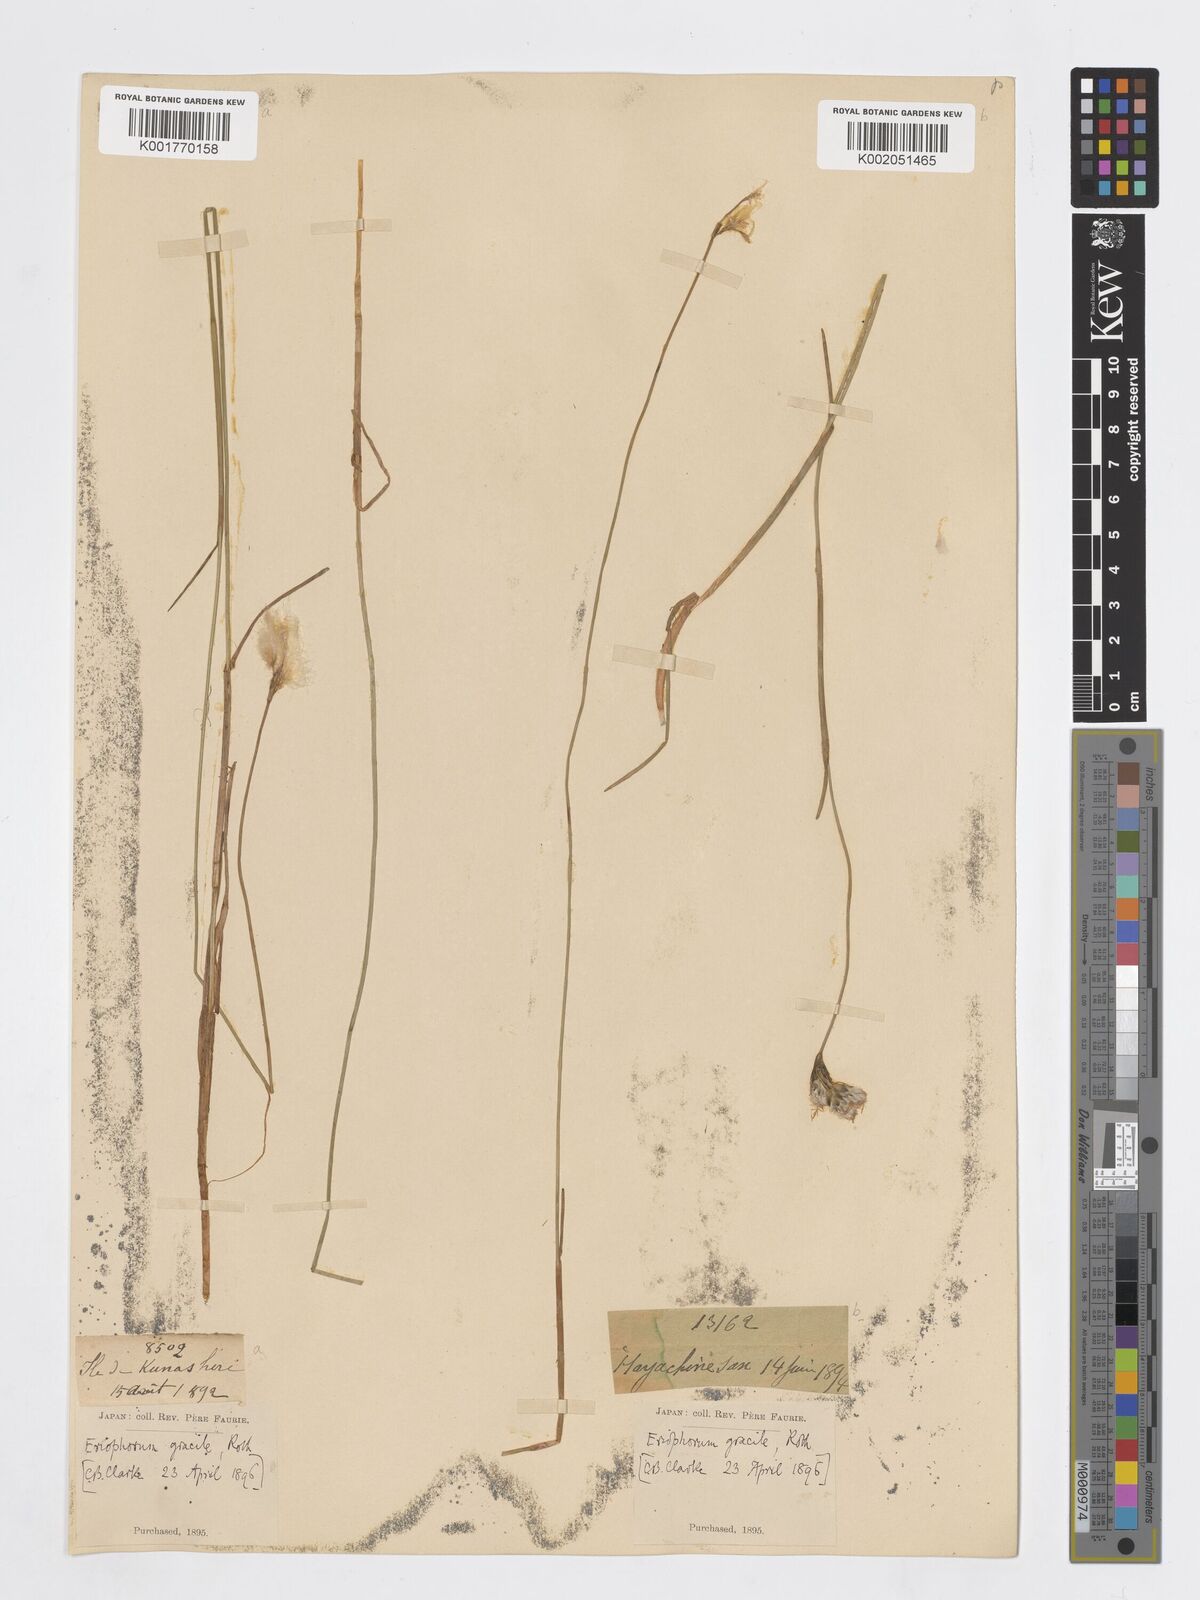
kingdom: Plantae
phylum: Tracheophyta
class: Liliopsida
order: Poales
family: Cyperaceae
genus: Eriophorum
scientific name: Eriophorum gracile
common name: Slender cottongrass
